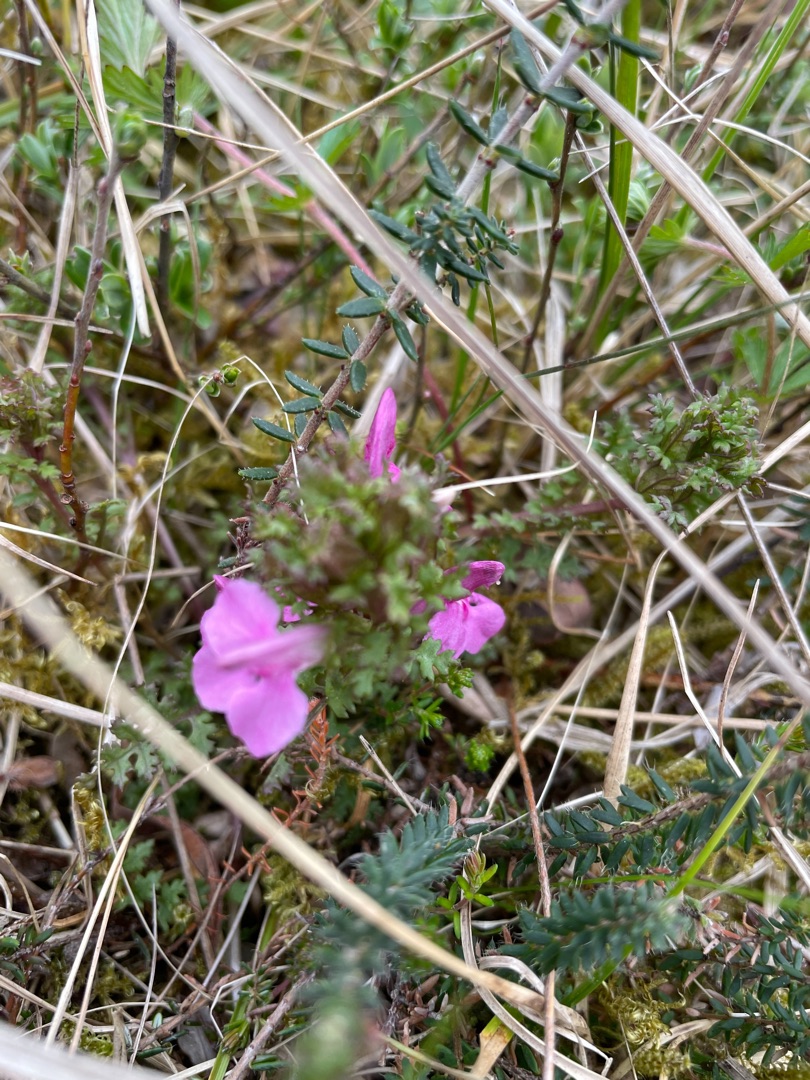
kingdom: Plantae
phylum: Tracheophyta
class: Magnoliopsida
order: Lamiales
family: Orobanchaceae
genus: Pedicularis
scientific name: Pedicularis sylvatica
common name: Mose-troldurt
